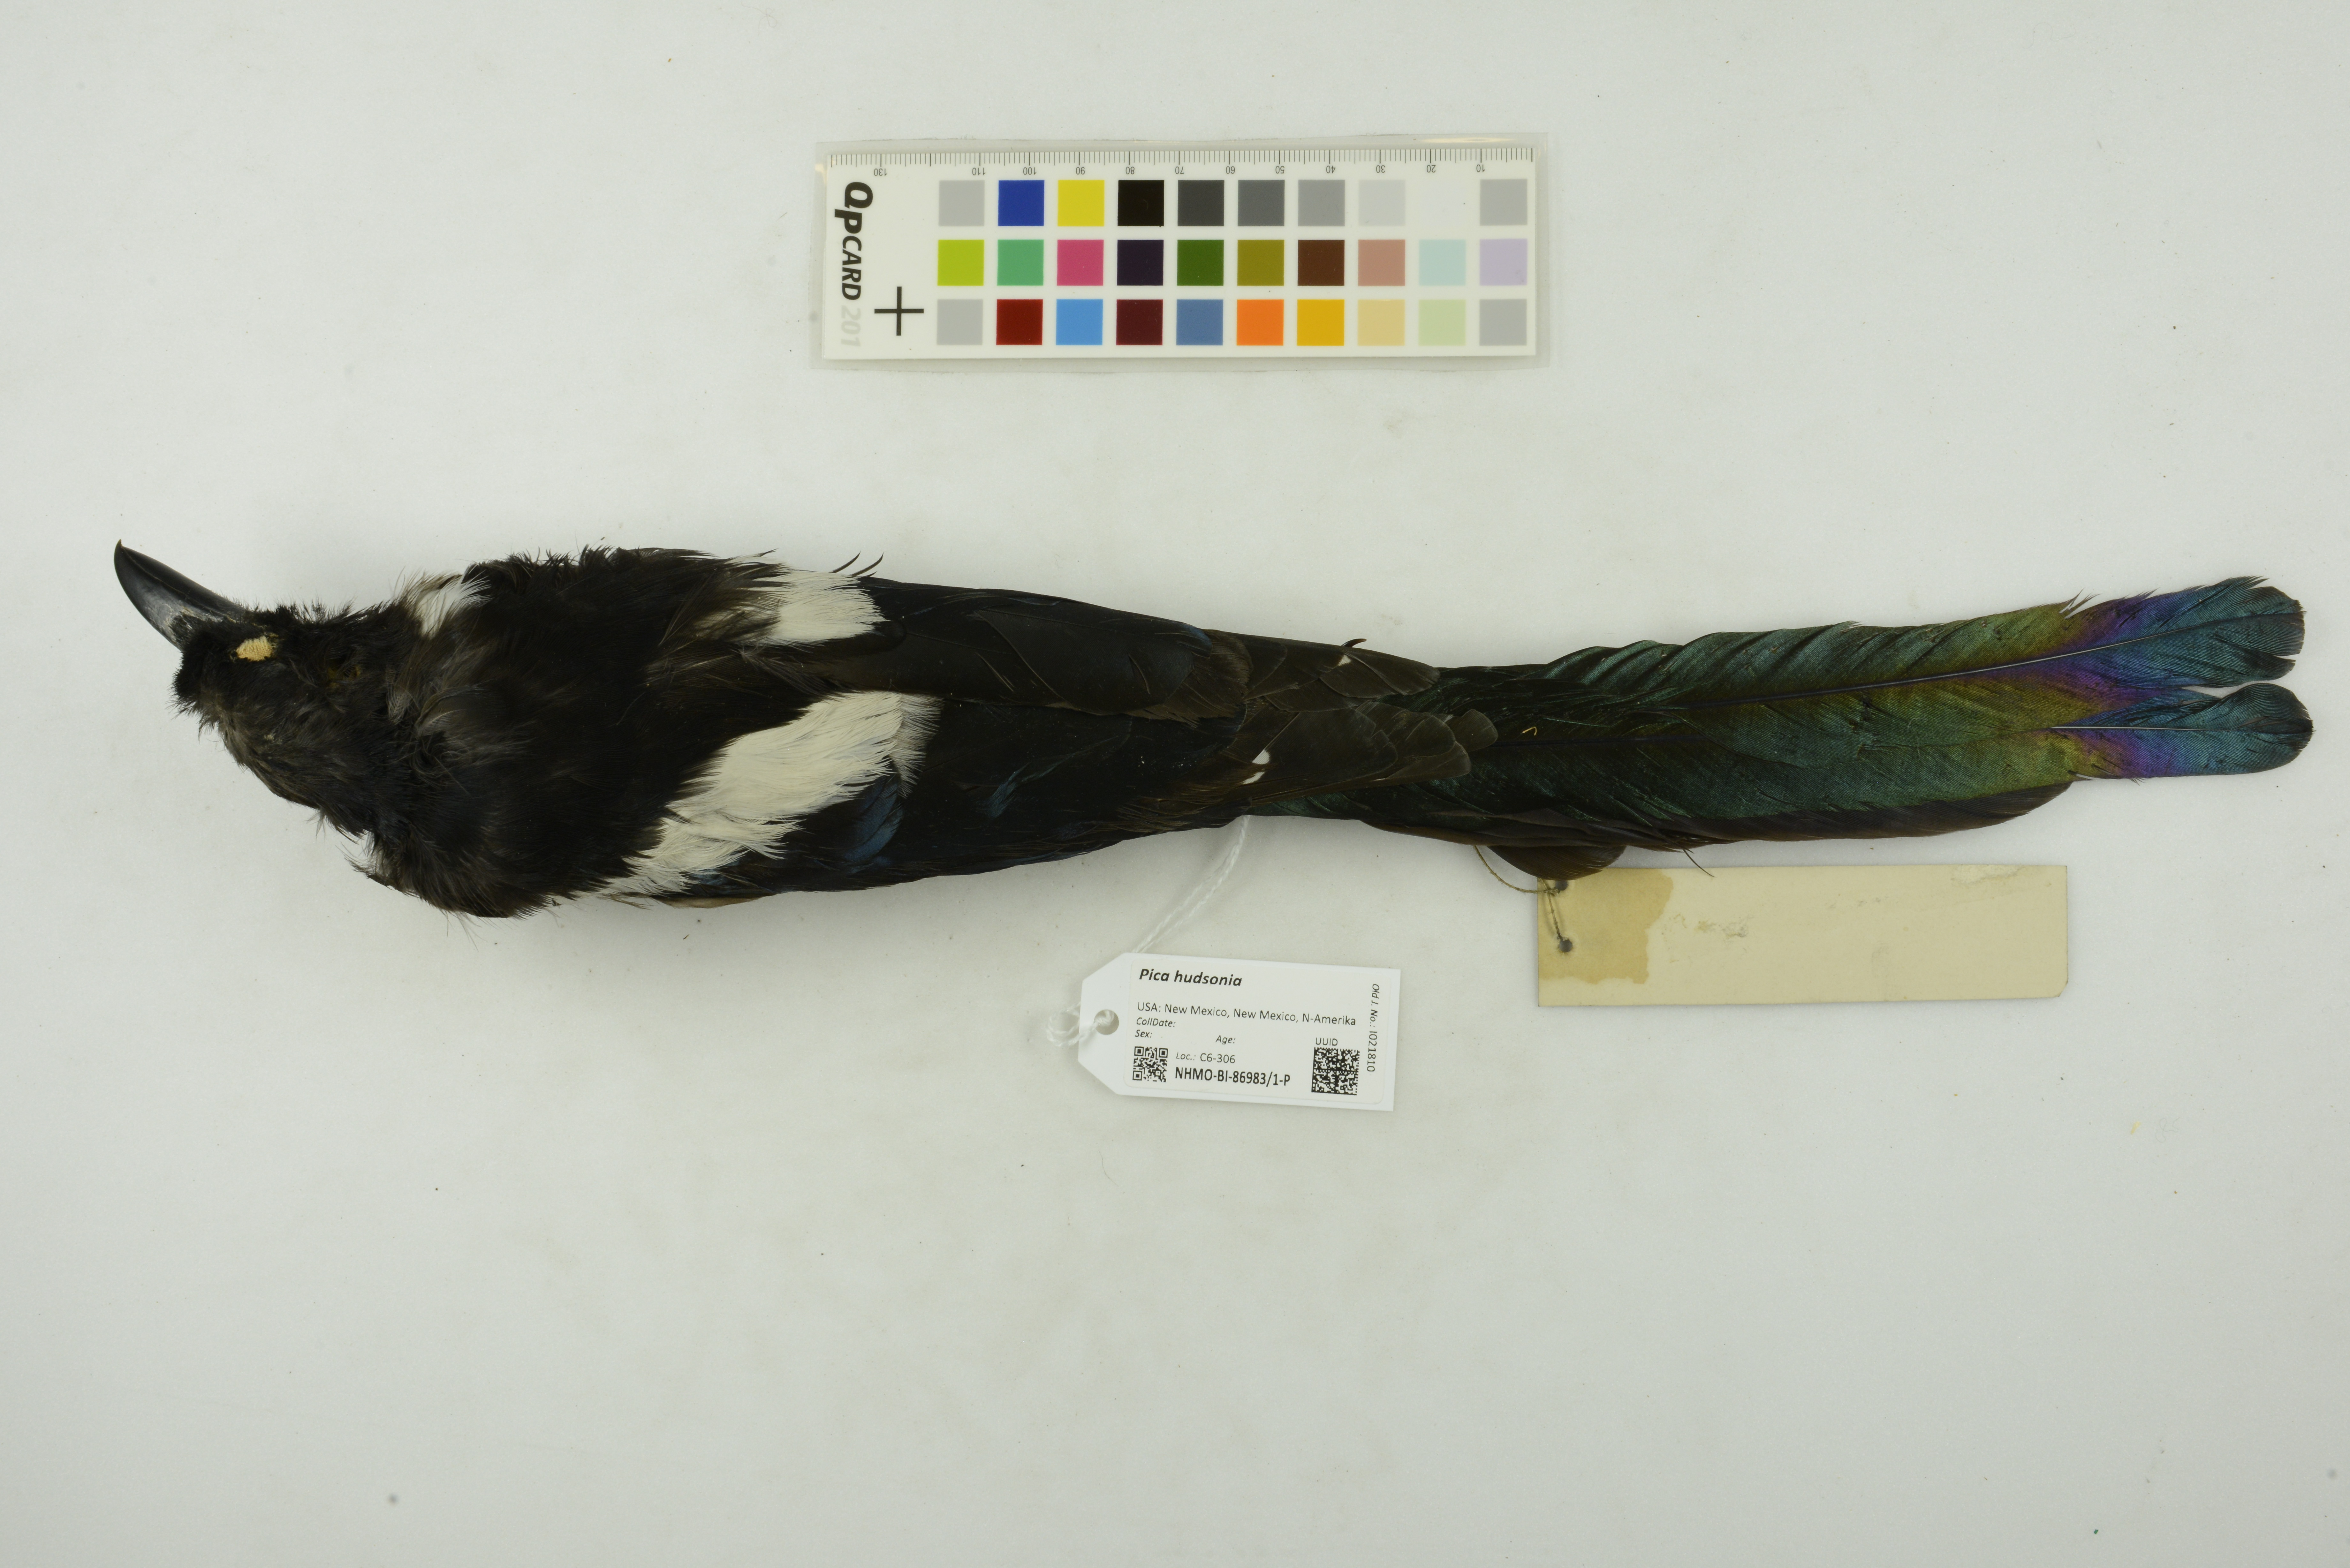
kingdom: Animalia
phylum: Chordata
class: Aves
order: Passeriformes
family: Corvidae
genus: Pica
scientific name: Pica hudsonia
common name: Black-billed magpie
